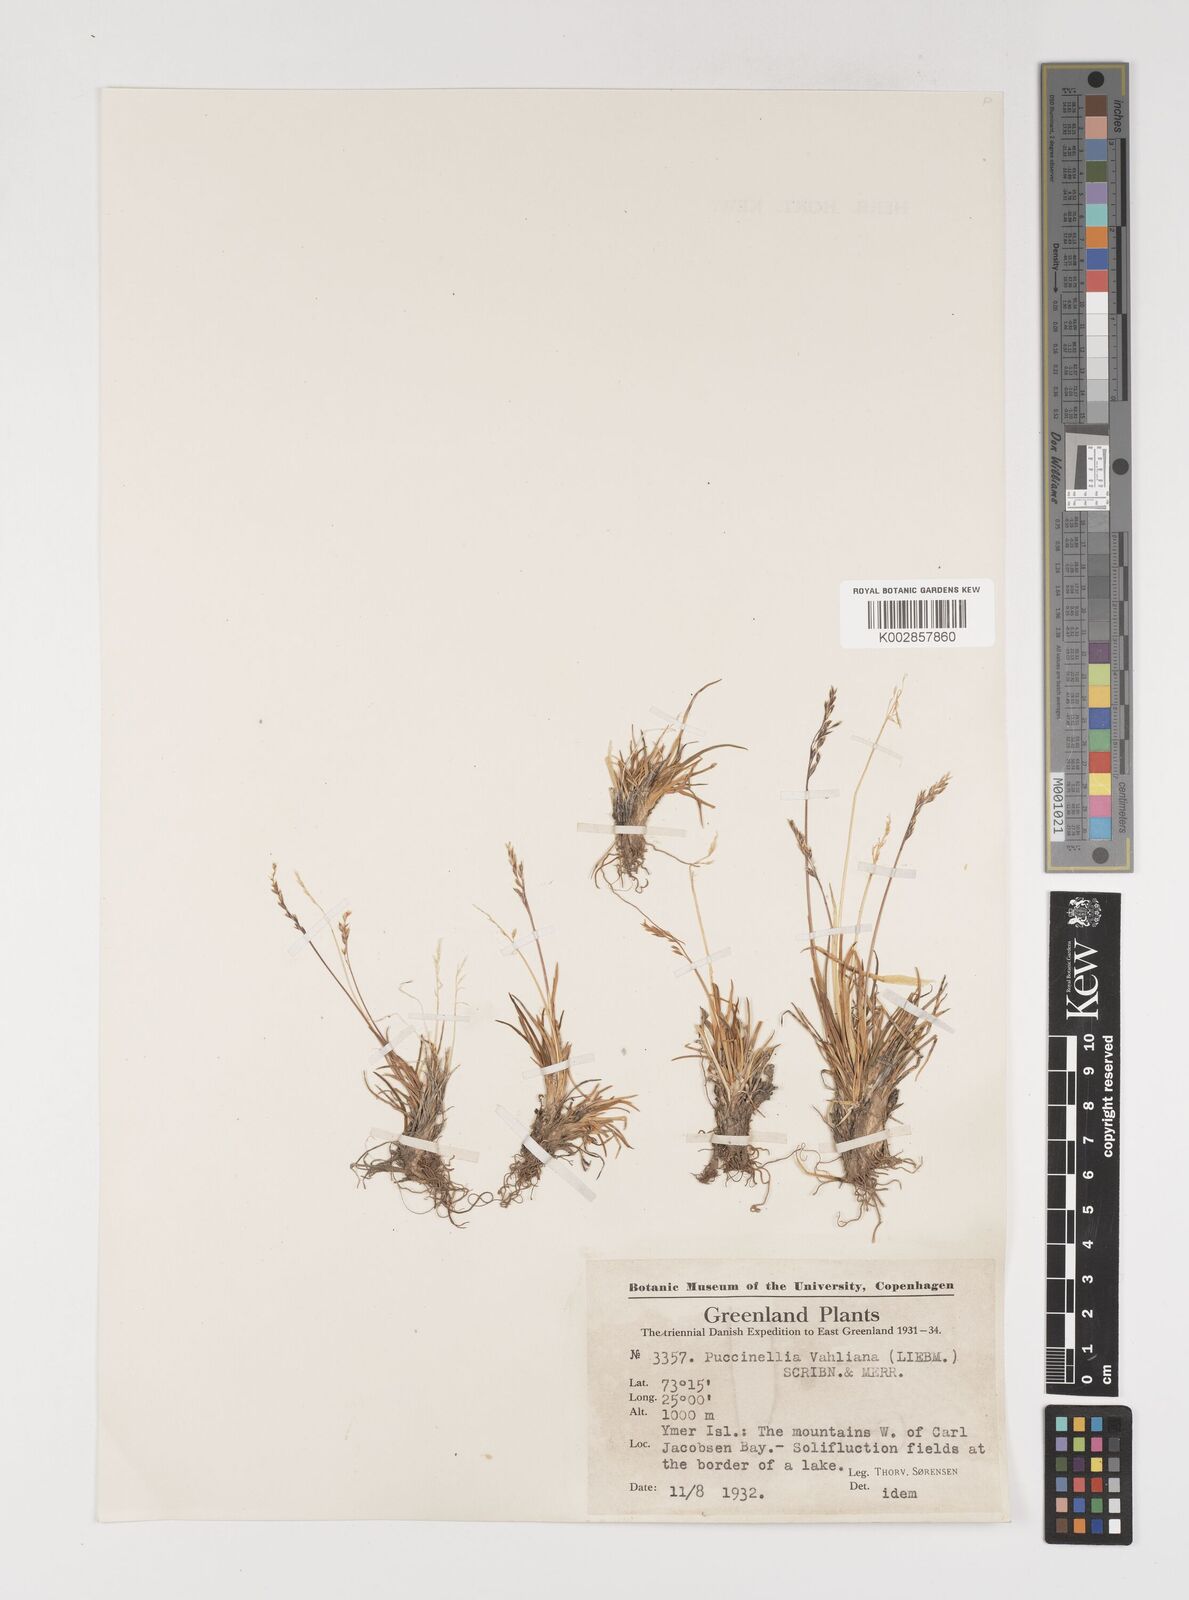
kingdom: Plantae
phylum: Tracheophyta
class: Liliopsida
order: Poales
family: Poaceae
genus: Puccinellia
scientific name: Puccinellia vahliana
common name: Vahl's alkaligrass
